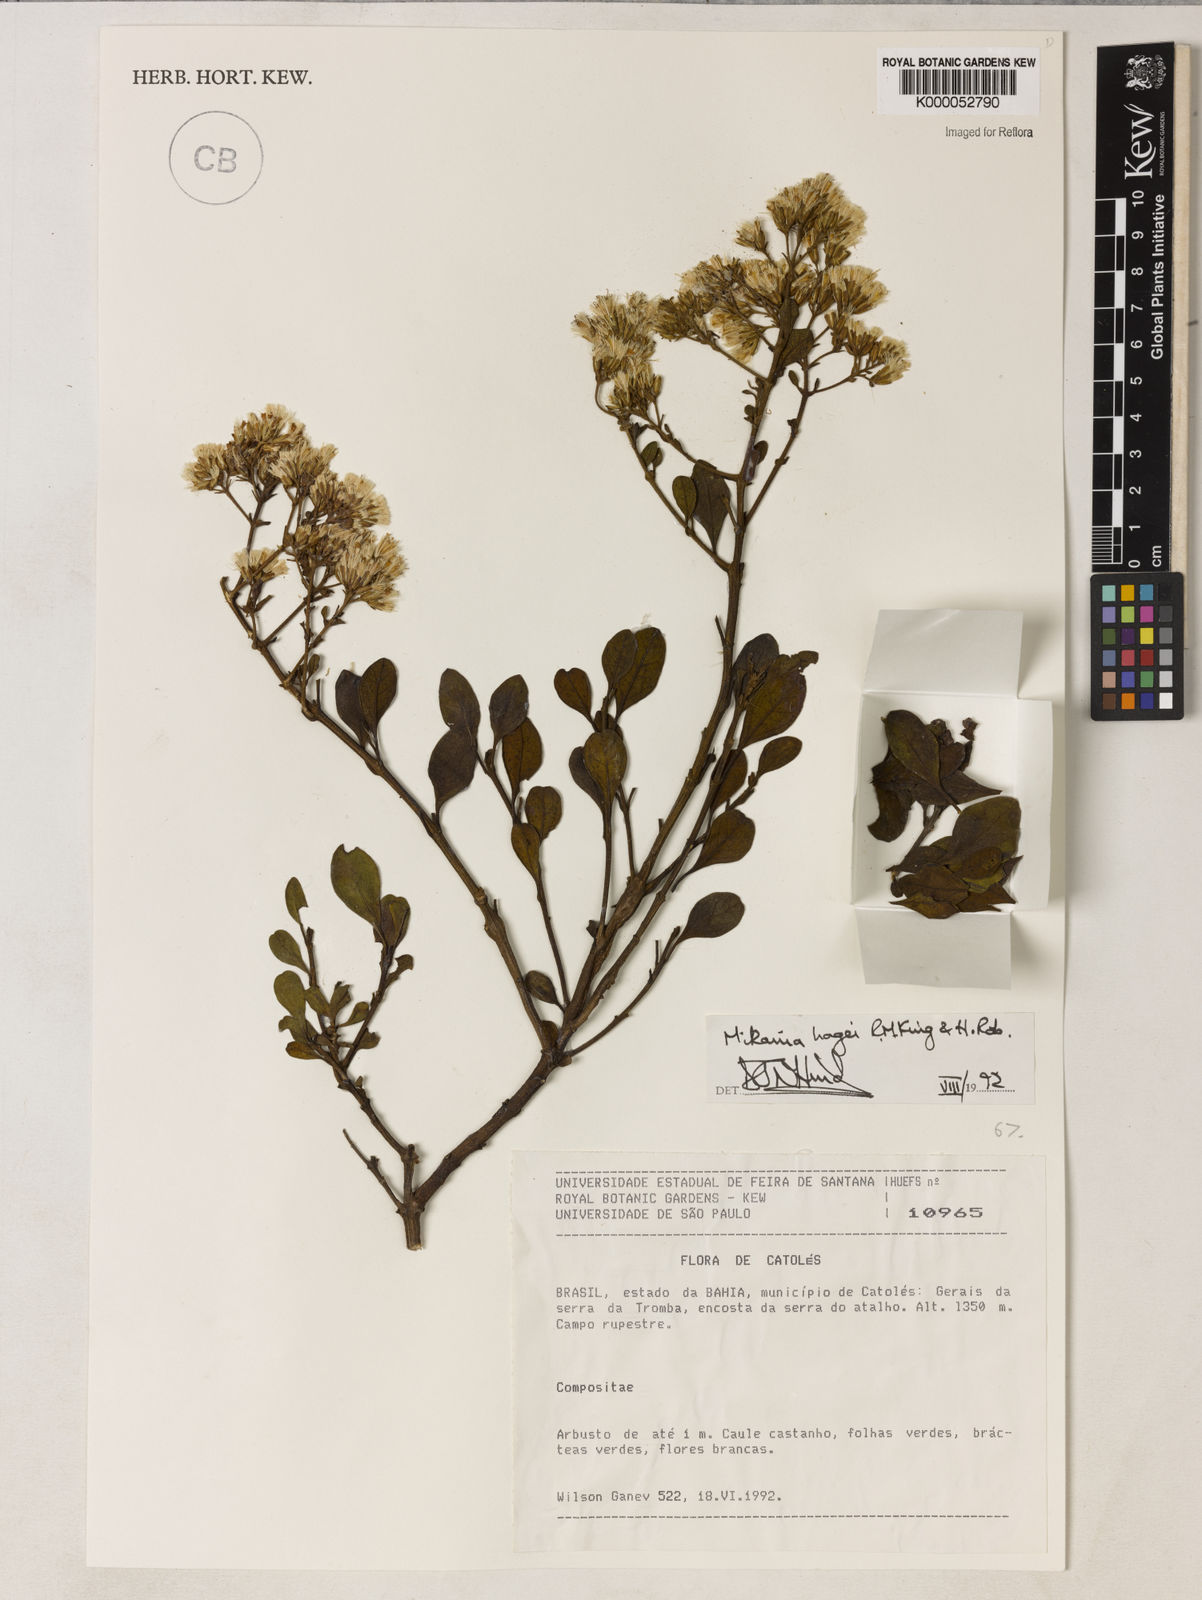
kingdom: Plantae
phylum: Tracheophyta
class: Magnoliopsida
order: Asterales
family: Asteraceae
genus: Mikania
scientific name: Mikania hagei
